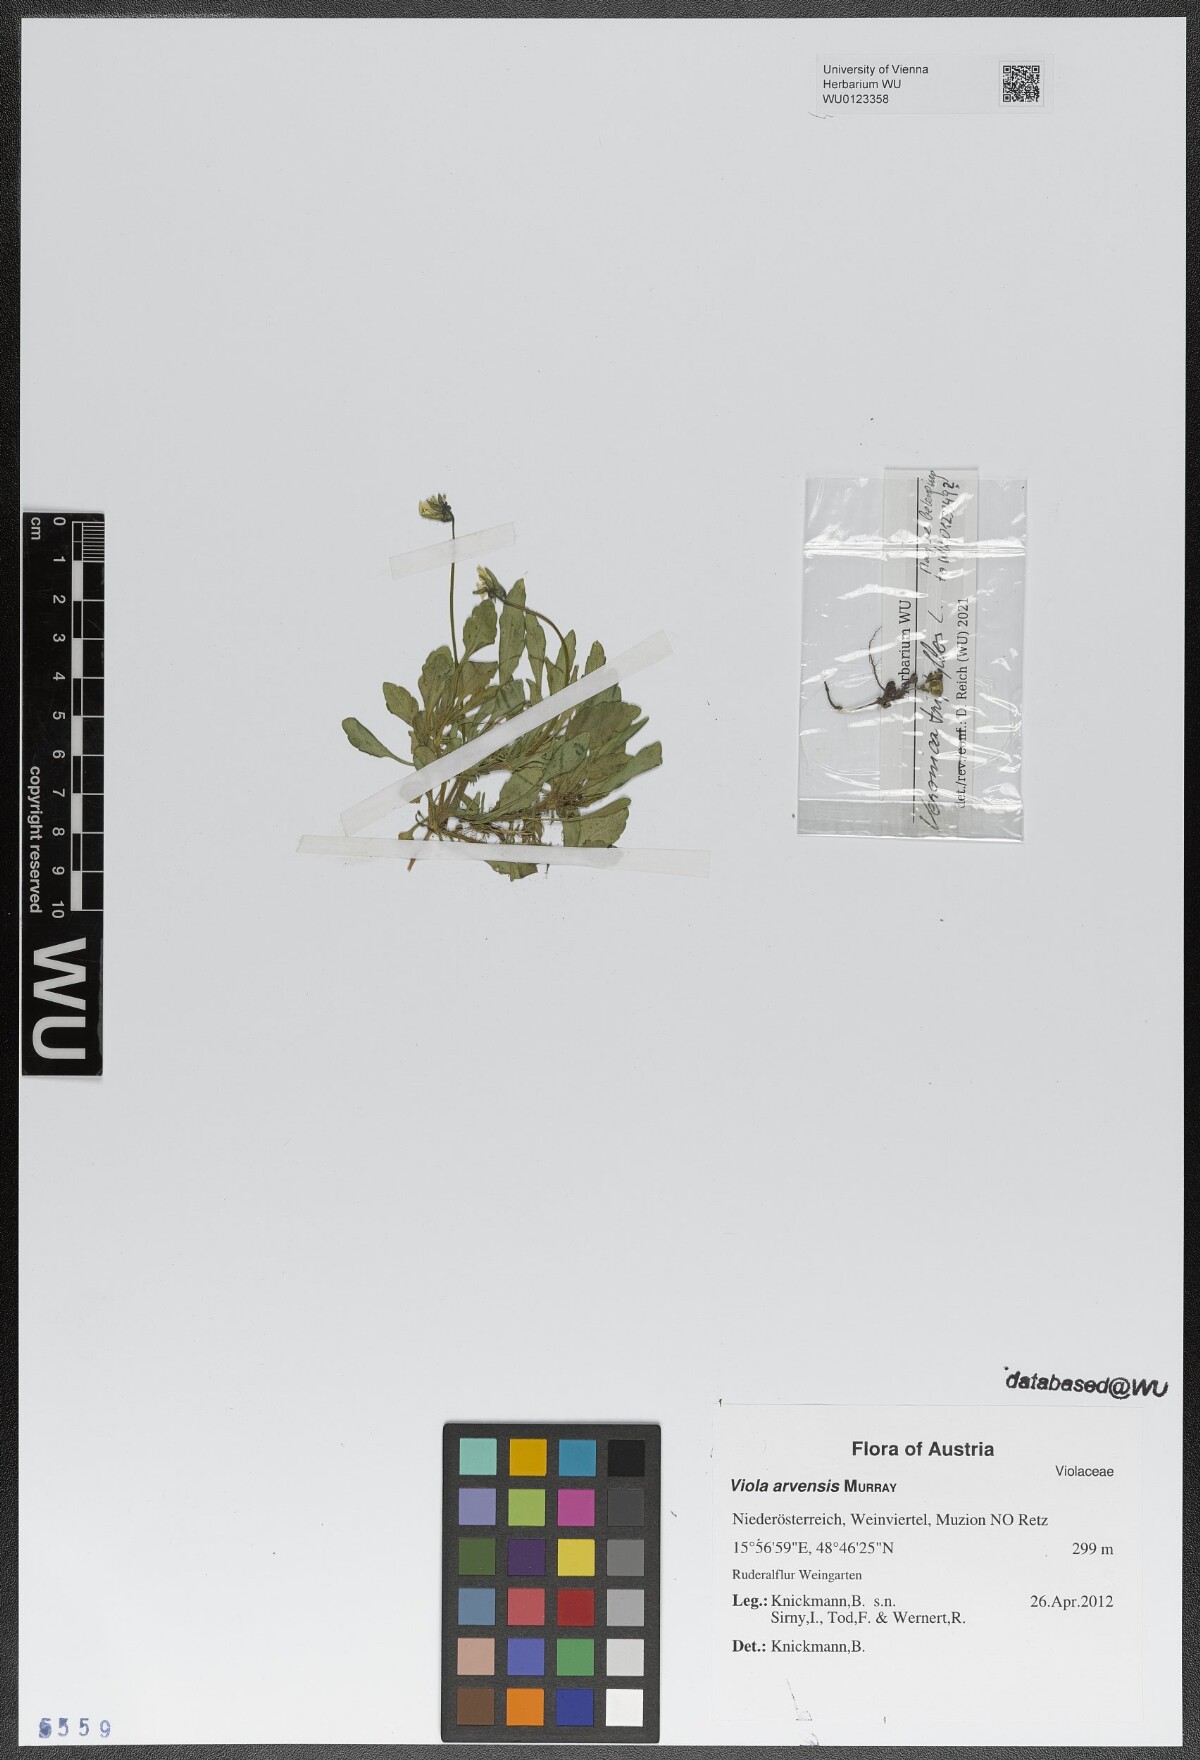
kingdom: Plantae
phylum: Tracheophyta
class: Magnoliopsida
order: Malpighiales
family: Violaceae
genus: Viola
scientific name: Viola arvensis
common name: Field pansy
